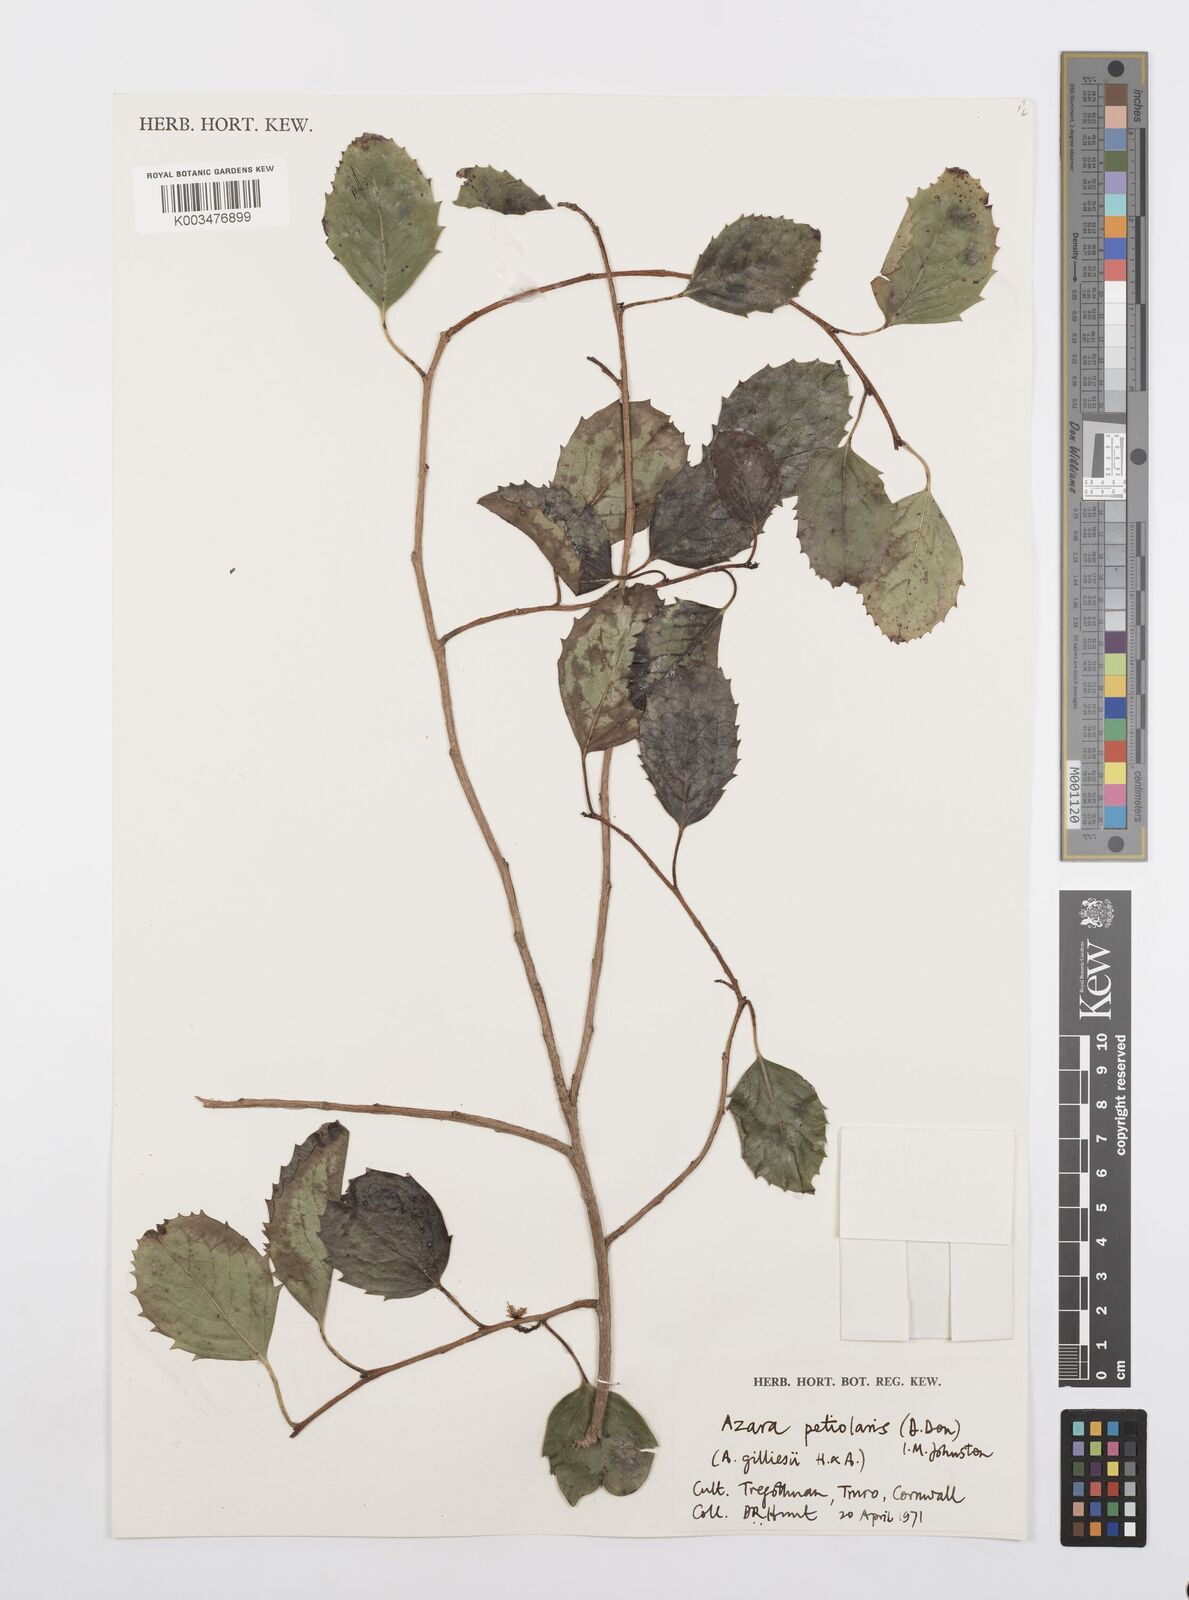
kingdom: Plantae
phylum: Tracheophyta
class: Magnoliopsida
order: Malpighiales
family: Salicaceae
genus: Azara
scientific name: Azara petiolaris
